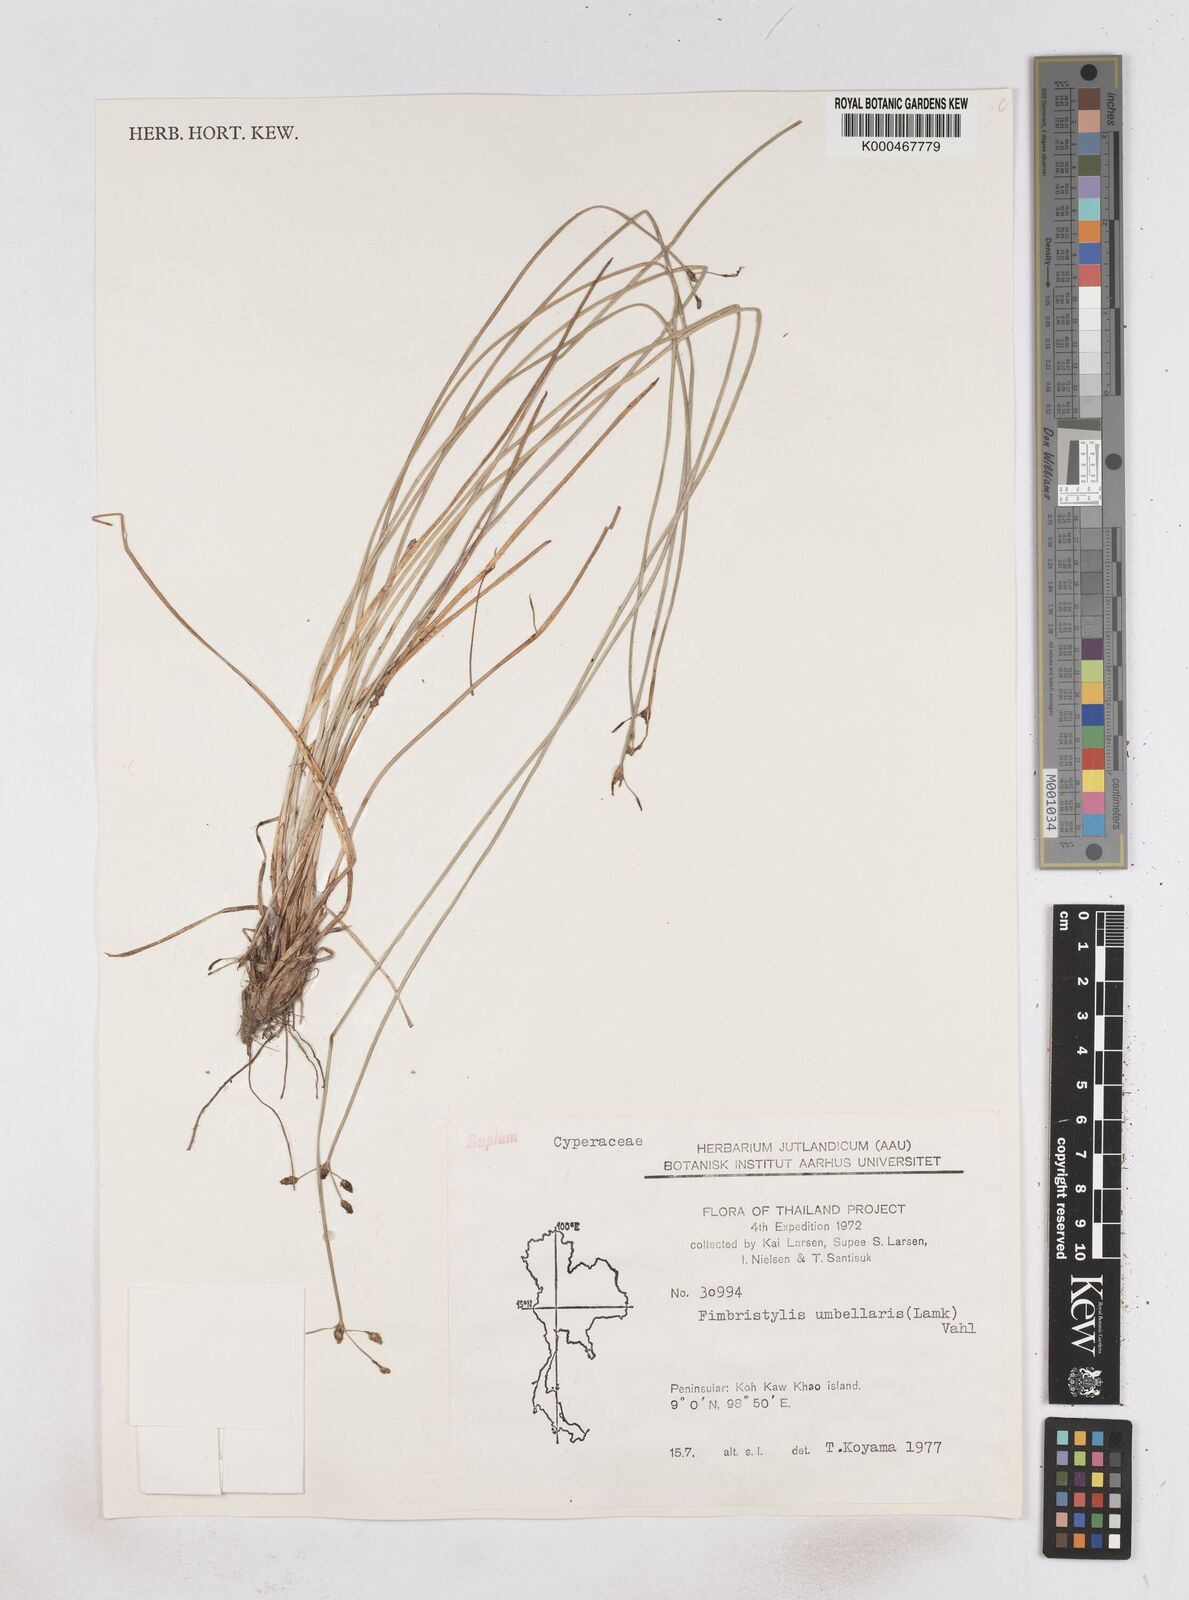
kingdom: Plantae
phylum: Tracheophyta
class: Liliopsida
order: Poales
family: Cyperaceae
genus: Fimbristylis
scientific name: Fimbristylis umbellaris
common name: Globular fimbristylis
